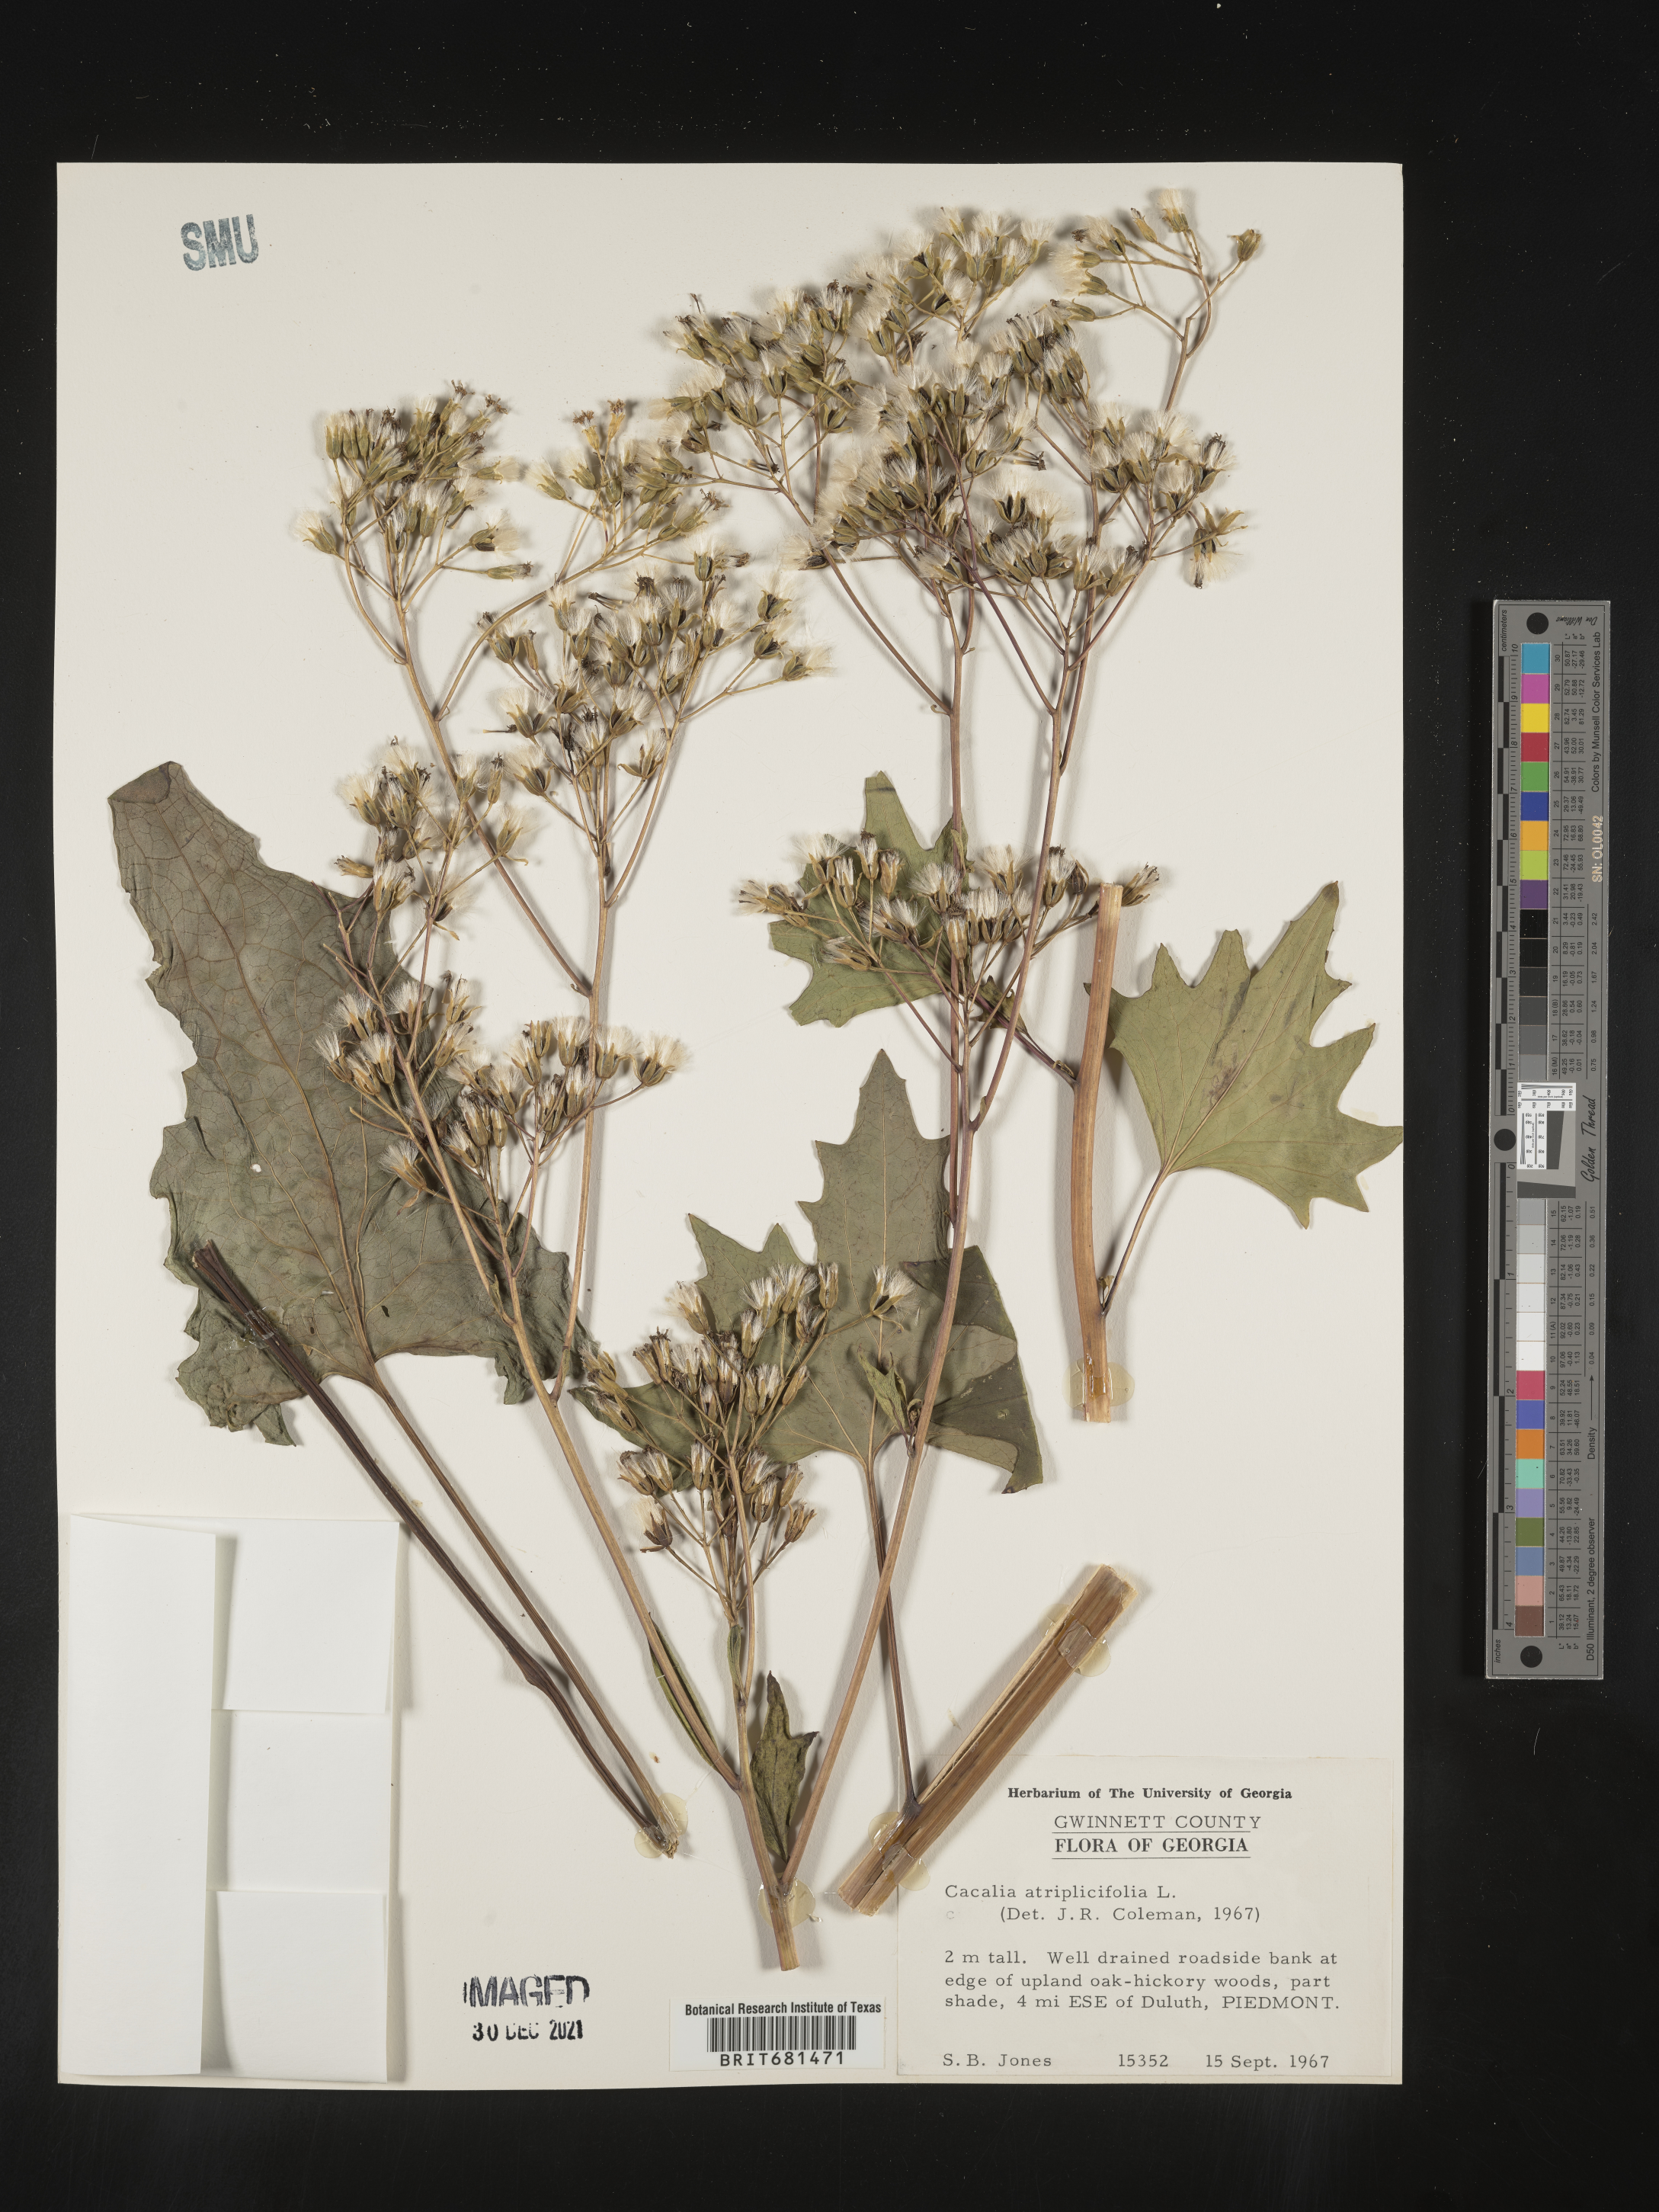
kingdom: Plantae
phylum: Tracheophyta
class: Magnoliopsida
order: Asterales
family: Asteraceae
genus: Arnoglossum
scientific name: Arnoglossum atriplicifolium
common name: Pale indian-plantain
